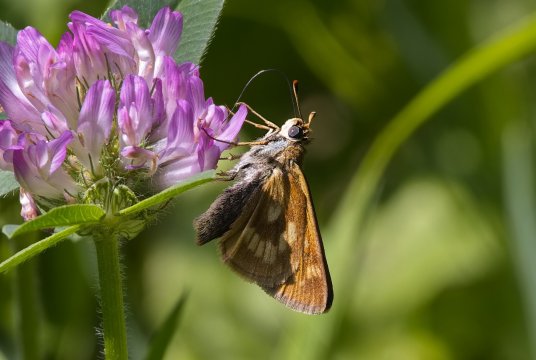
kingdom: Animalia
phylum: Arthropoda
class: Insecta
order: Lepidoptera
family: Hesperiidae
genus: Polites
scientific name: Polites
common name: Long Dash Skipper
